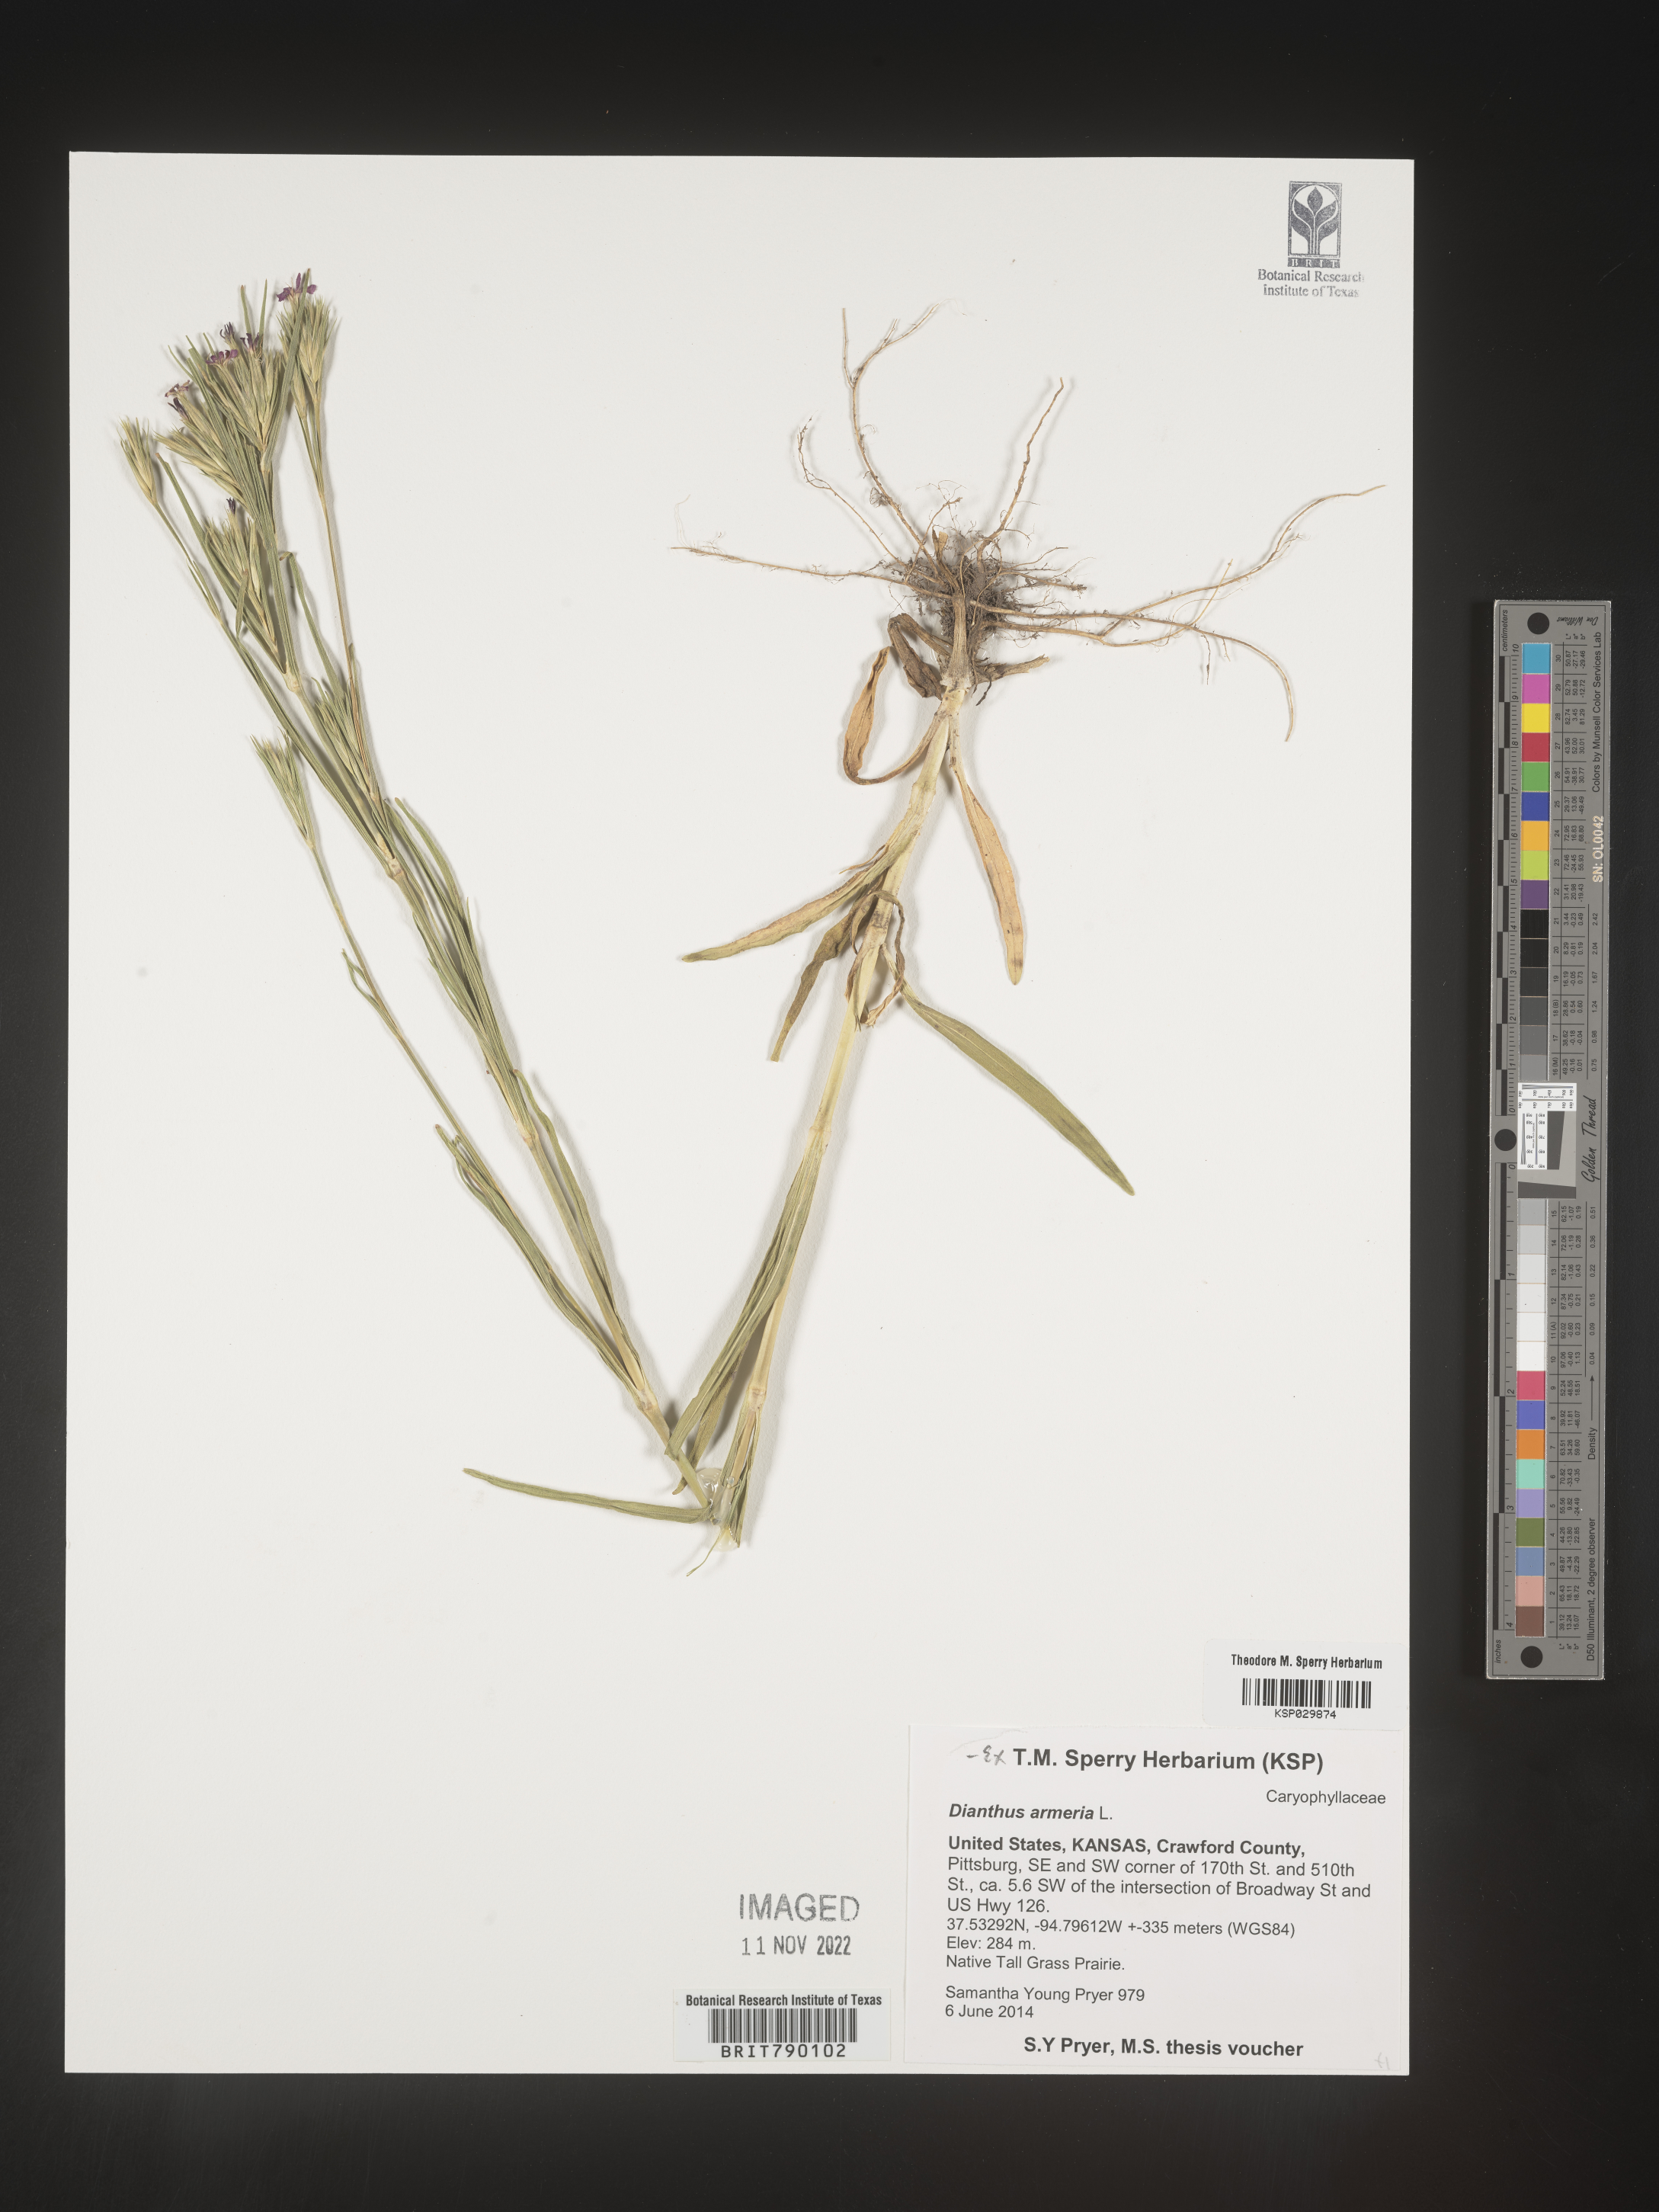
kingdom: Plantae
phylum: Tracheophyta
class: Magnoliopsida
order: Caryophyllales
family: Caryophyllaceae
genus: Dianthus
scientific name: Dianthus armeria
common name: Deptford pink
